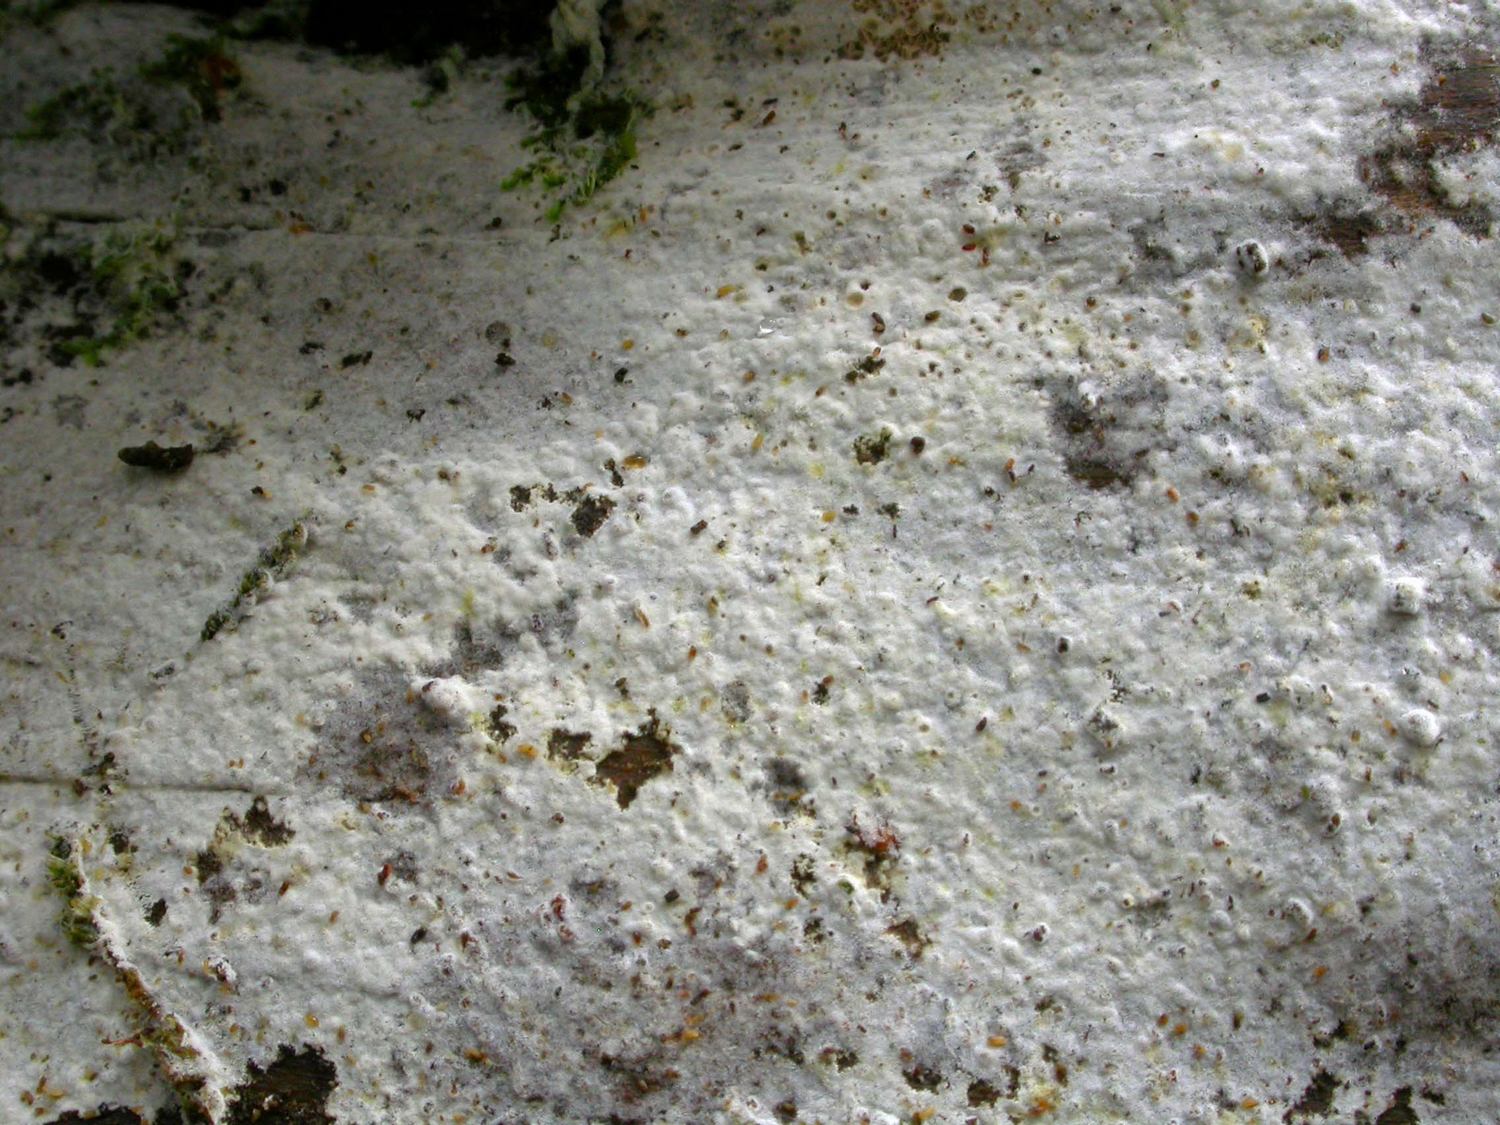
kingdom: Fungi
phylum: Basidiomycota
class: Agaricomycetes
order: Cantharellales
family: Botryobasidiaceae
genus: Botryobasidium
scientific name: Botryobasidium laeve
